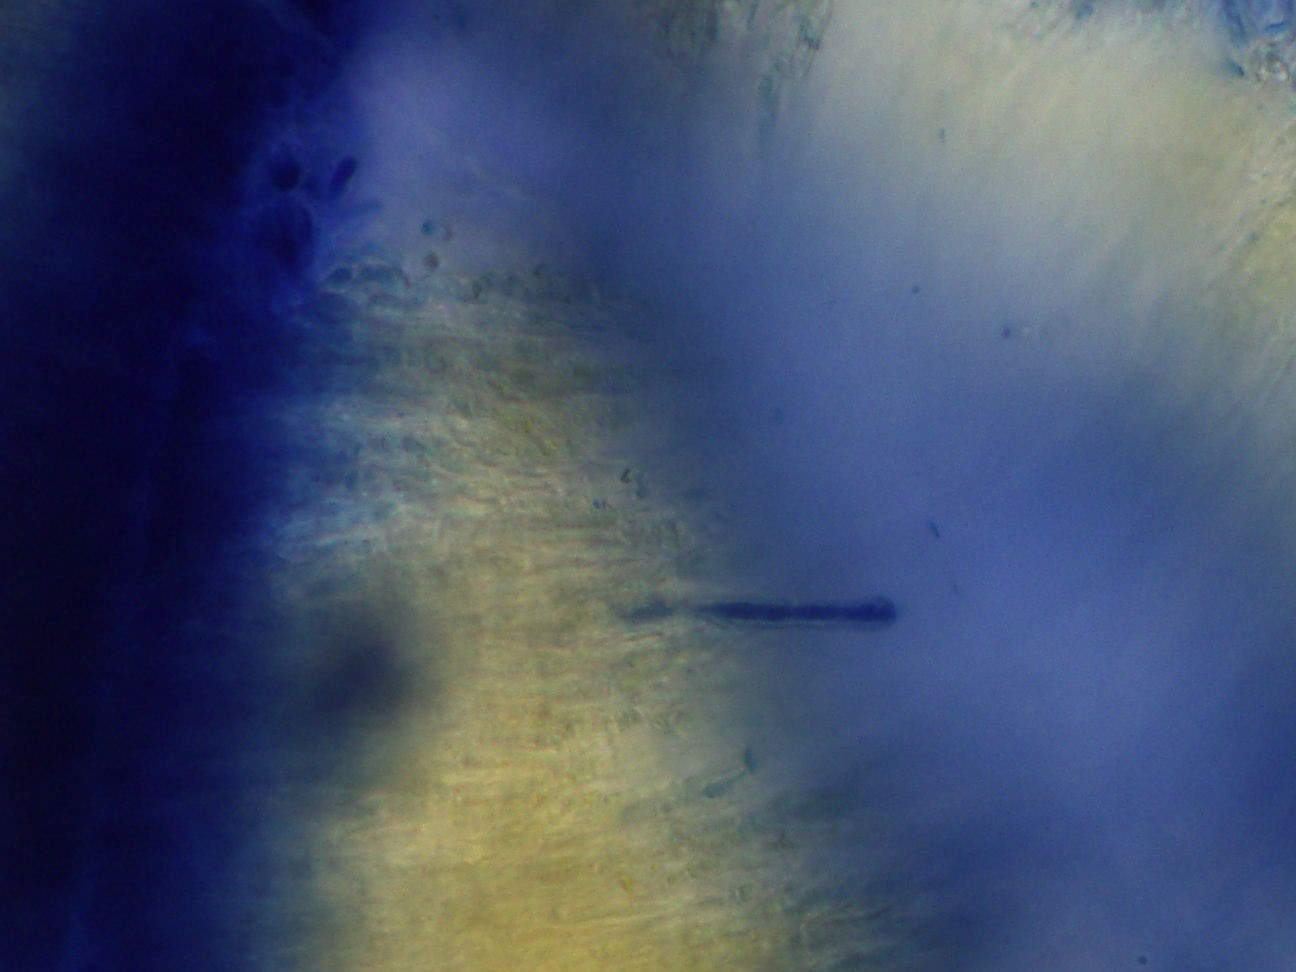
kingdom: Fungi
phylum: Basidiomycota
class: Agaricomycetes
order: Russulales
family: Stereaceae
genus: Stereum
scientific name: Stereum
